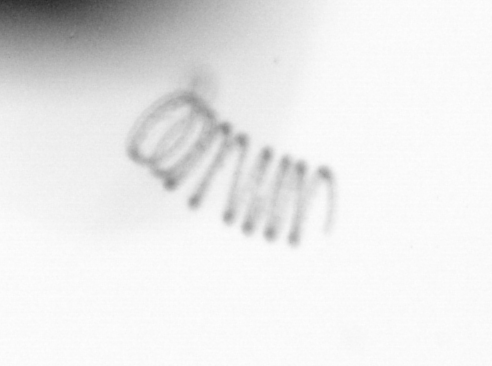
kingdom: Chromista
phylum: Ochrophyta
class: Bacillariophyceae
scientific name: Bacillariophyceae
